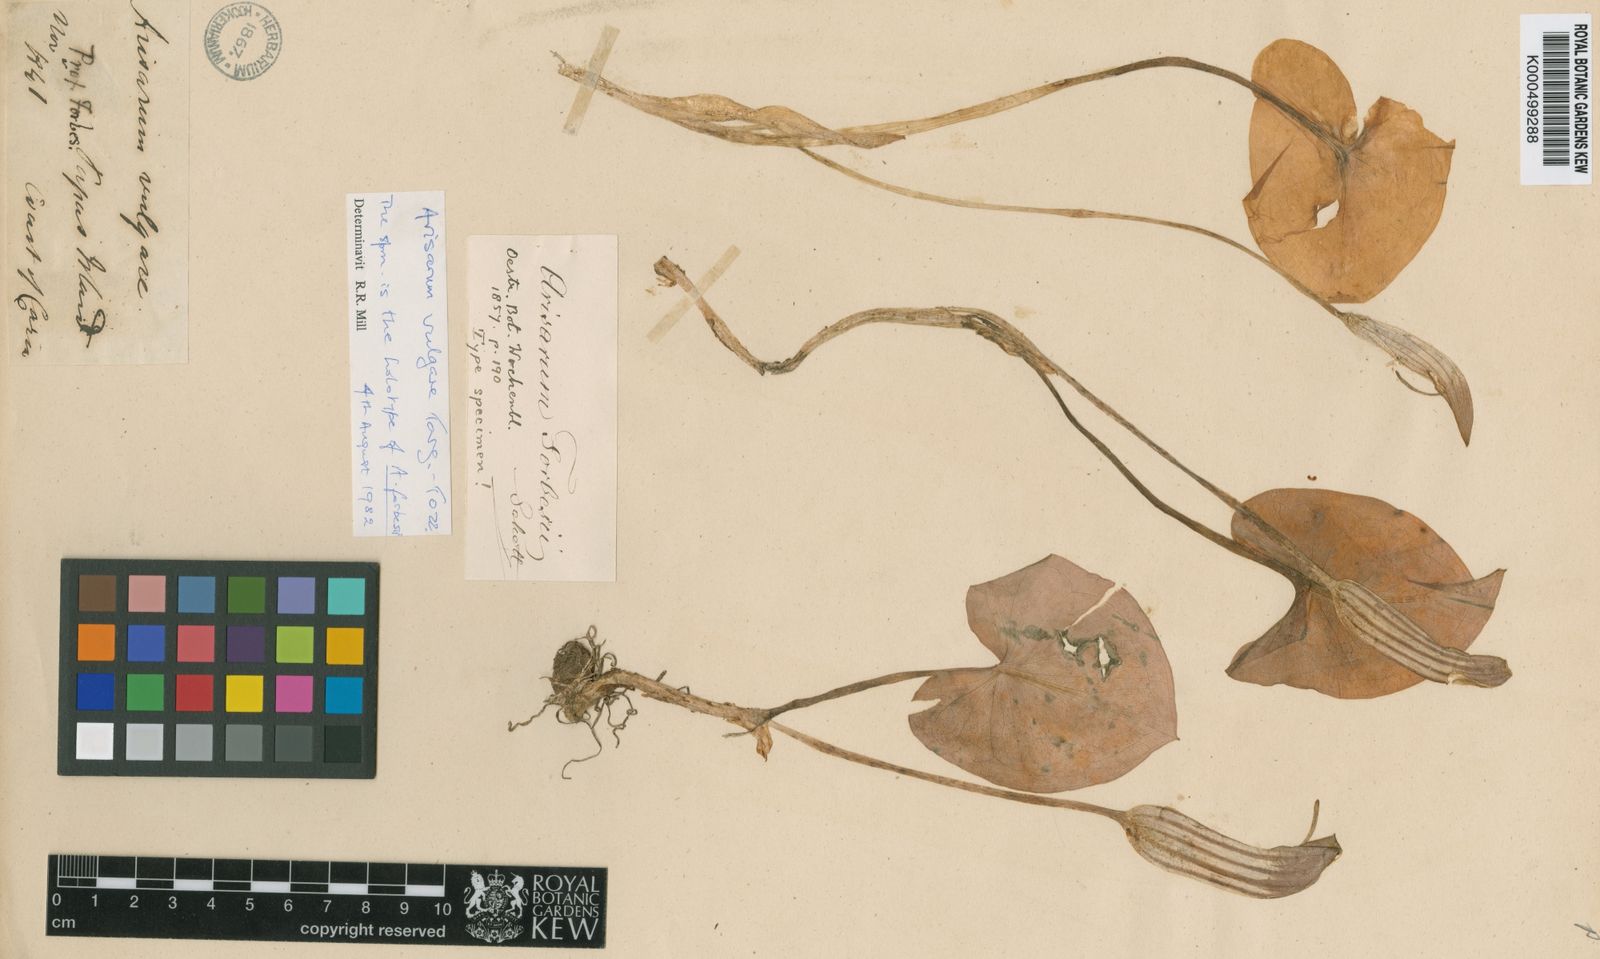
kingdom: Plantae
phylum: Tracheophyta
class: Liliopsida
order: Alismatales
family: Araceae
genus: Arisarum
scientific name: Arisarum vulgare
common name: Common arisarum
